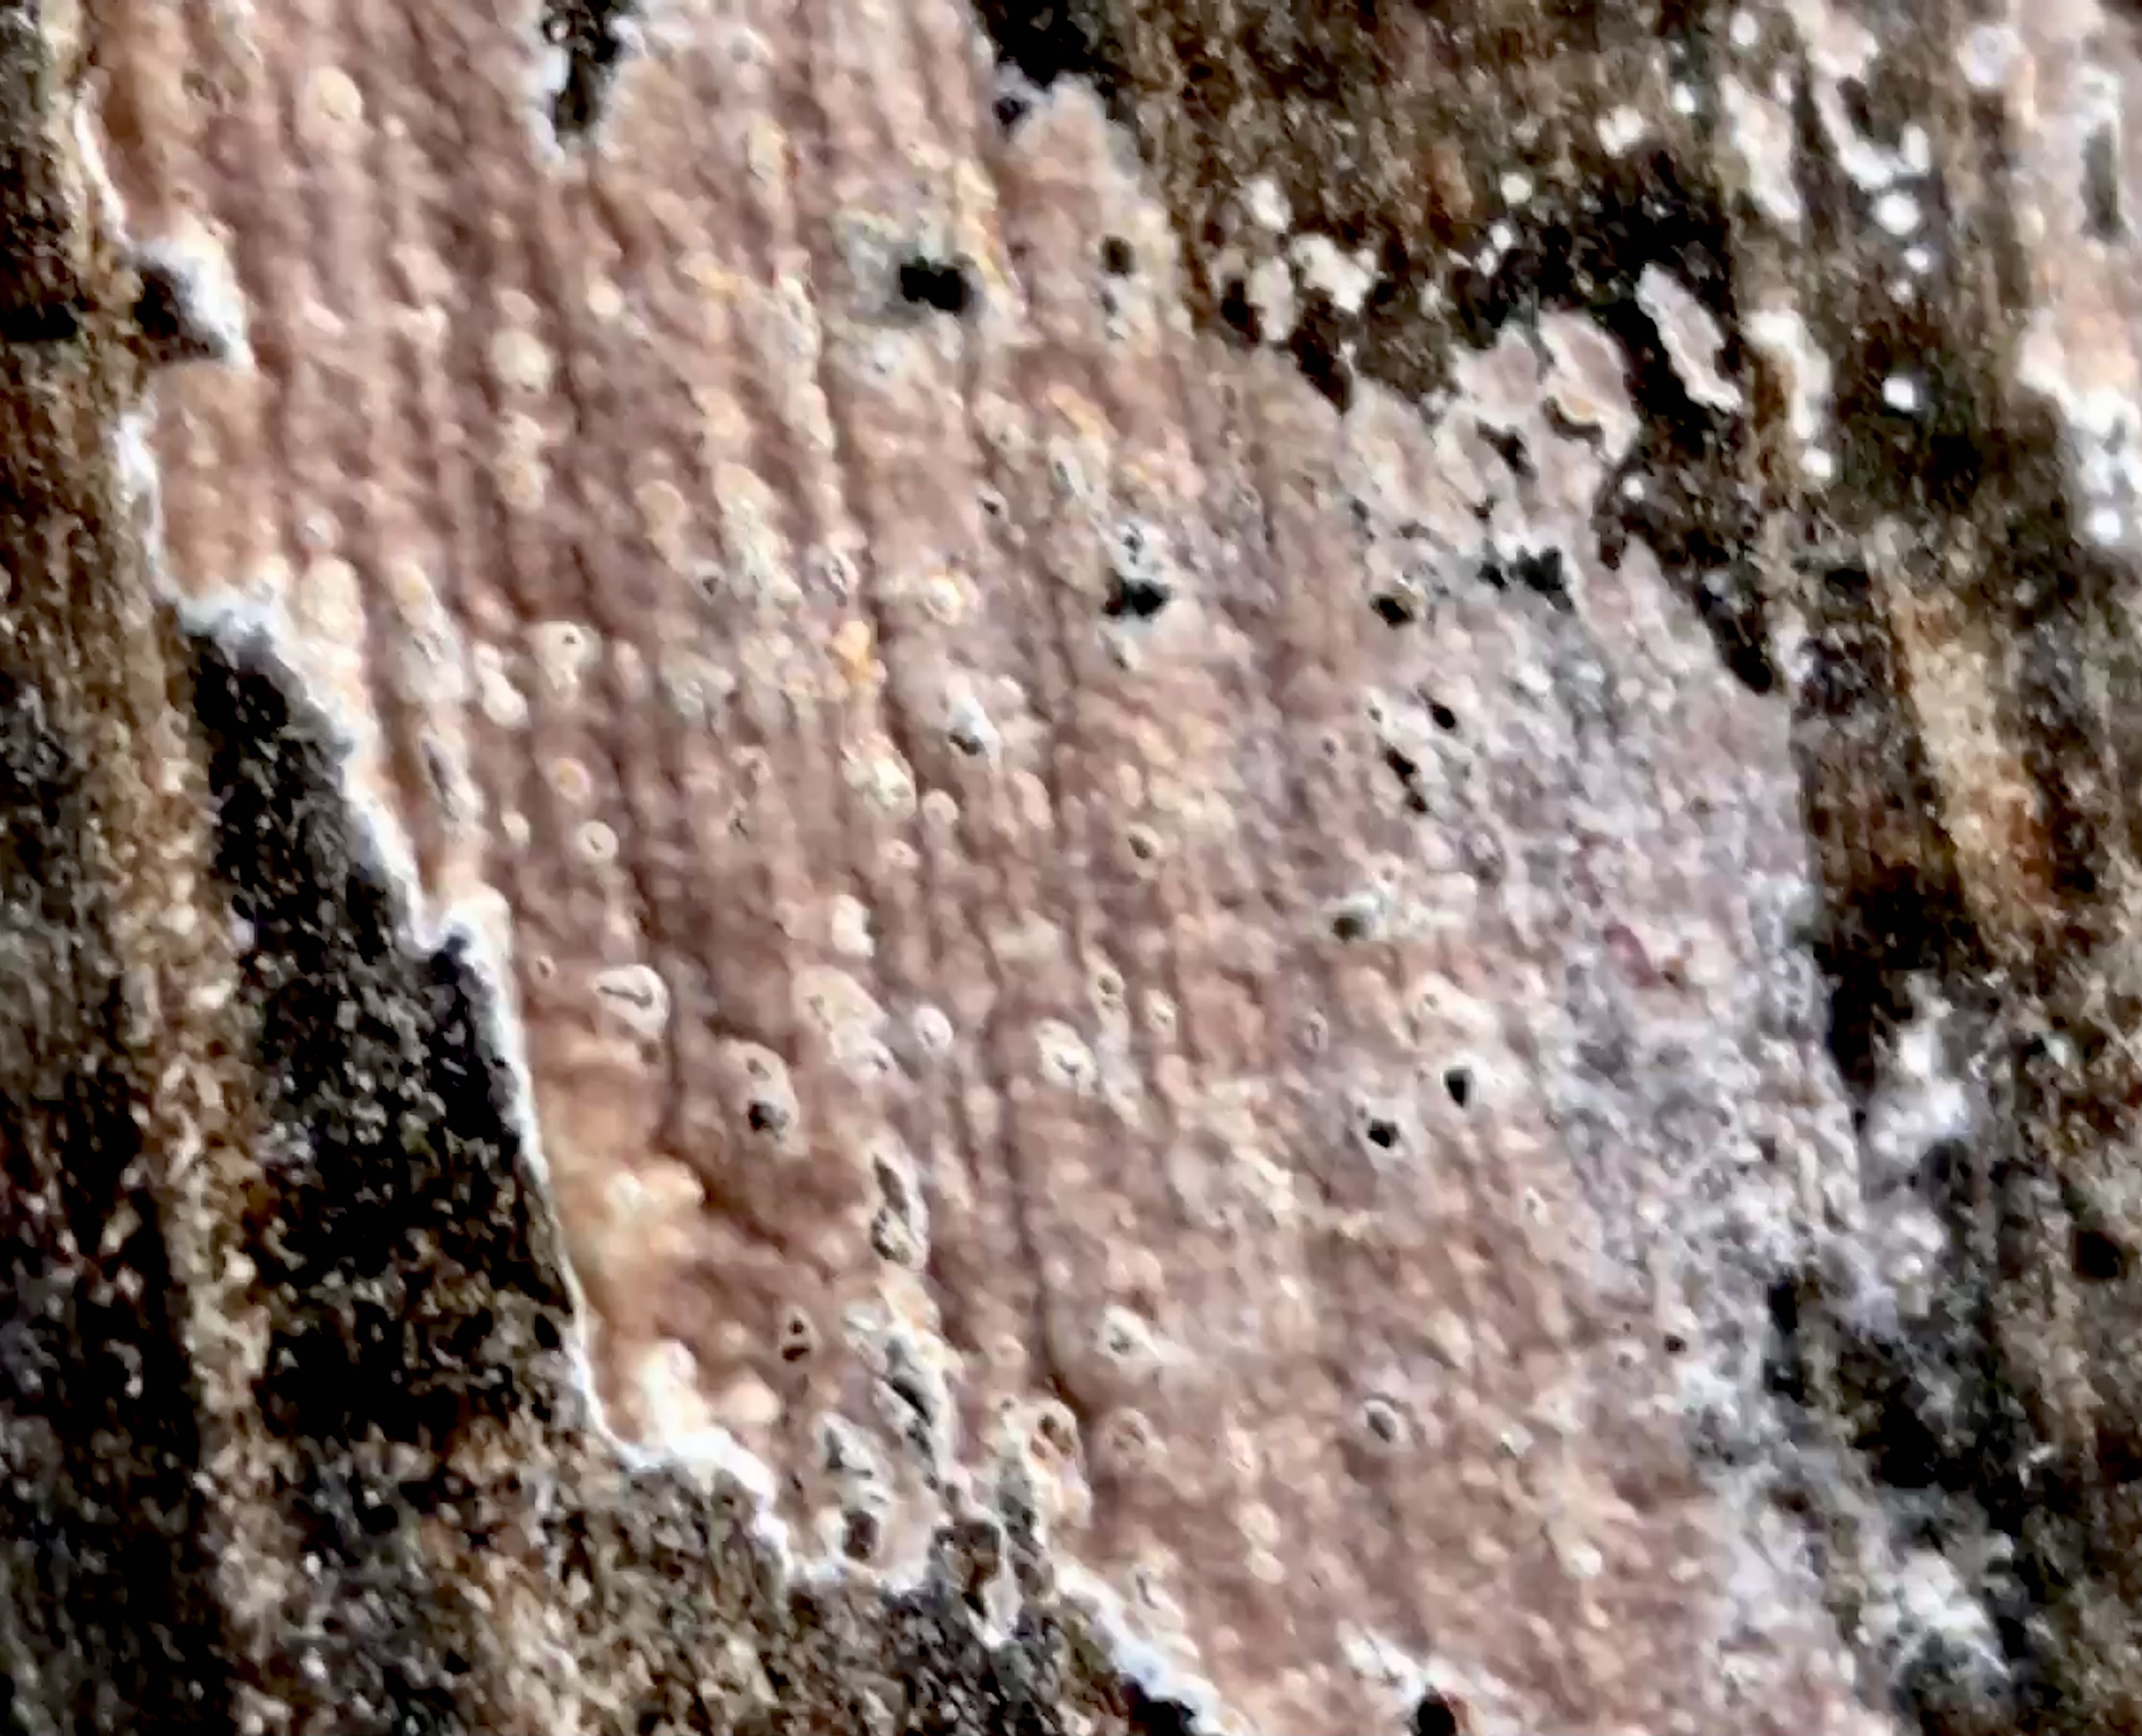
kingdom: Fungi
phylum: Basidiomycota
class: Agaricomycetes
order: Agaricales
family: Physalacriaceae
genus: Cylindrobasidium
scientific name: Cylindrobasidium evolvens
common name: sprækkehinde
